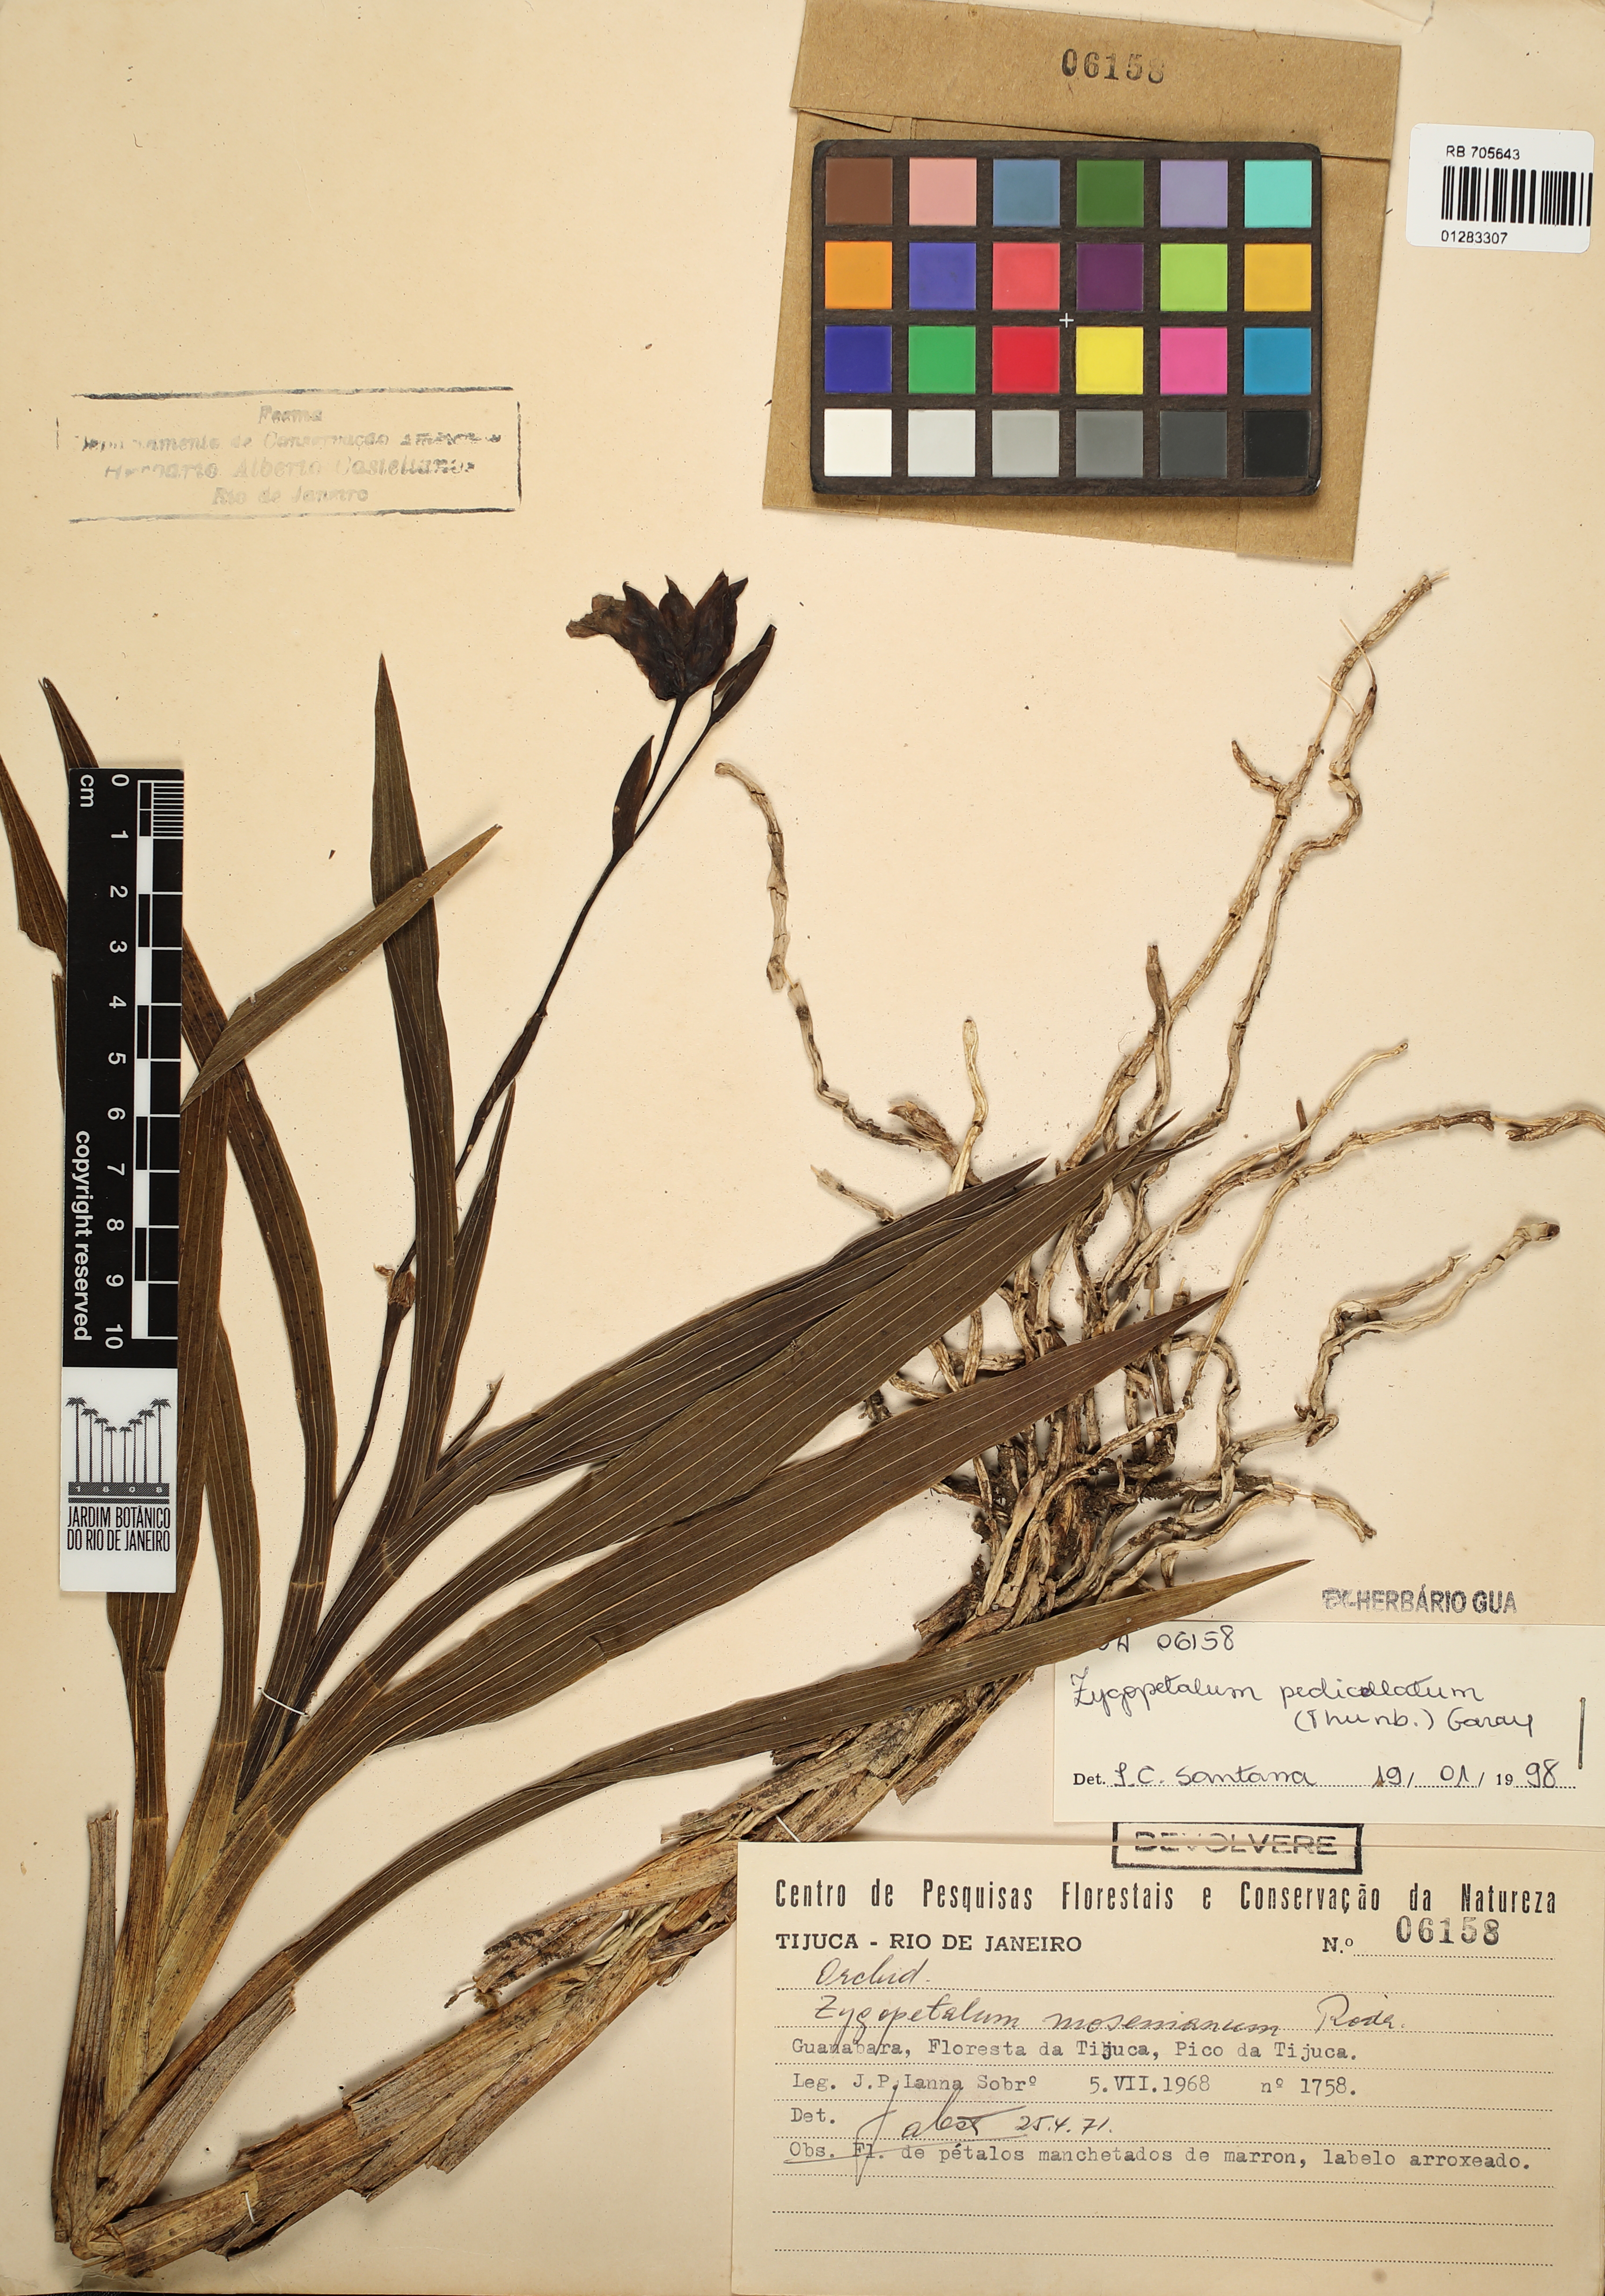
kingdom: Plantae
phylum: Tracheophyta
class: Liliopsida
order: Asparagales
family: Orchidaceae
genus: Zygopetalum
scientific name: Zygopetalum mosenianum
